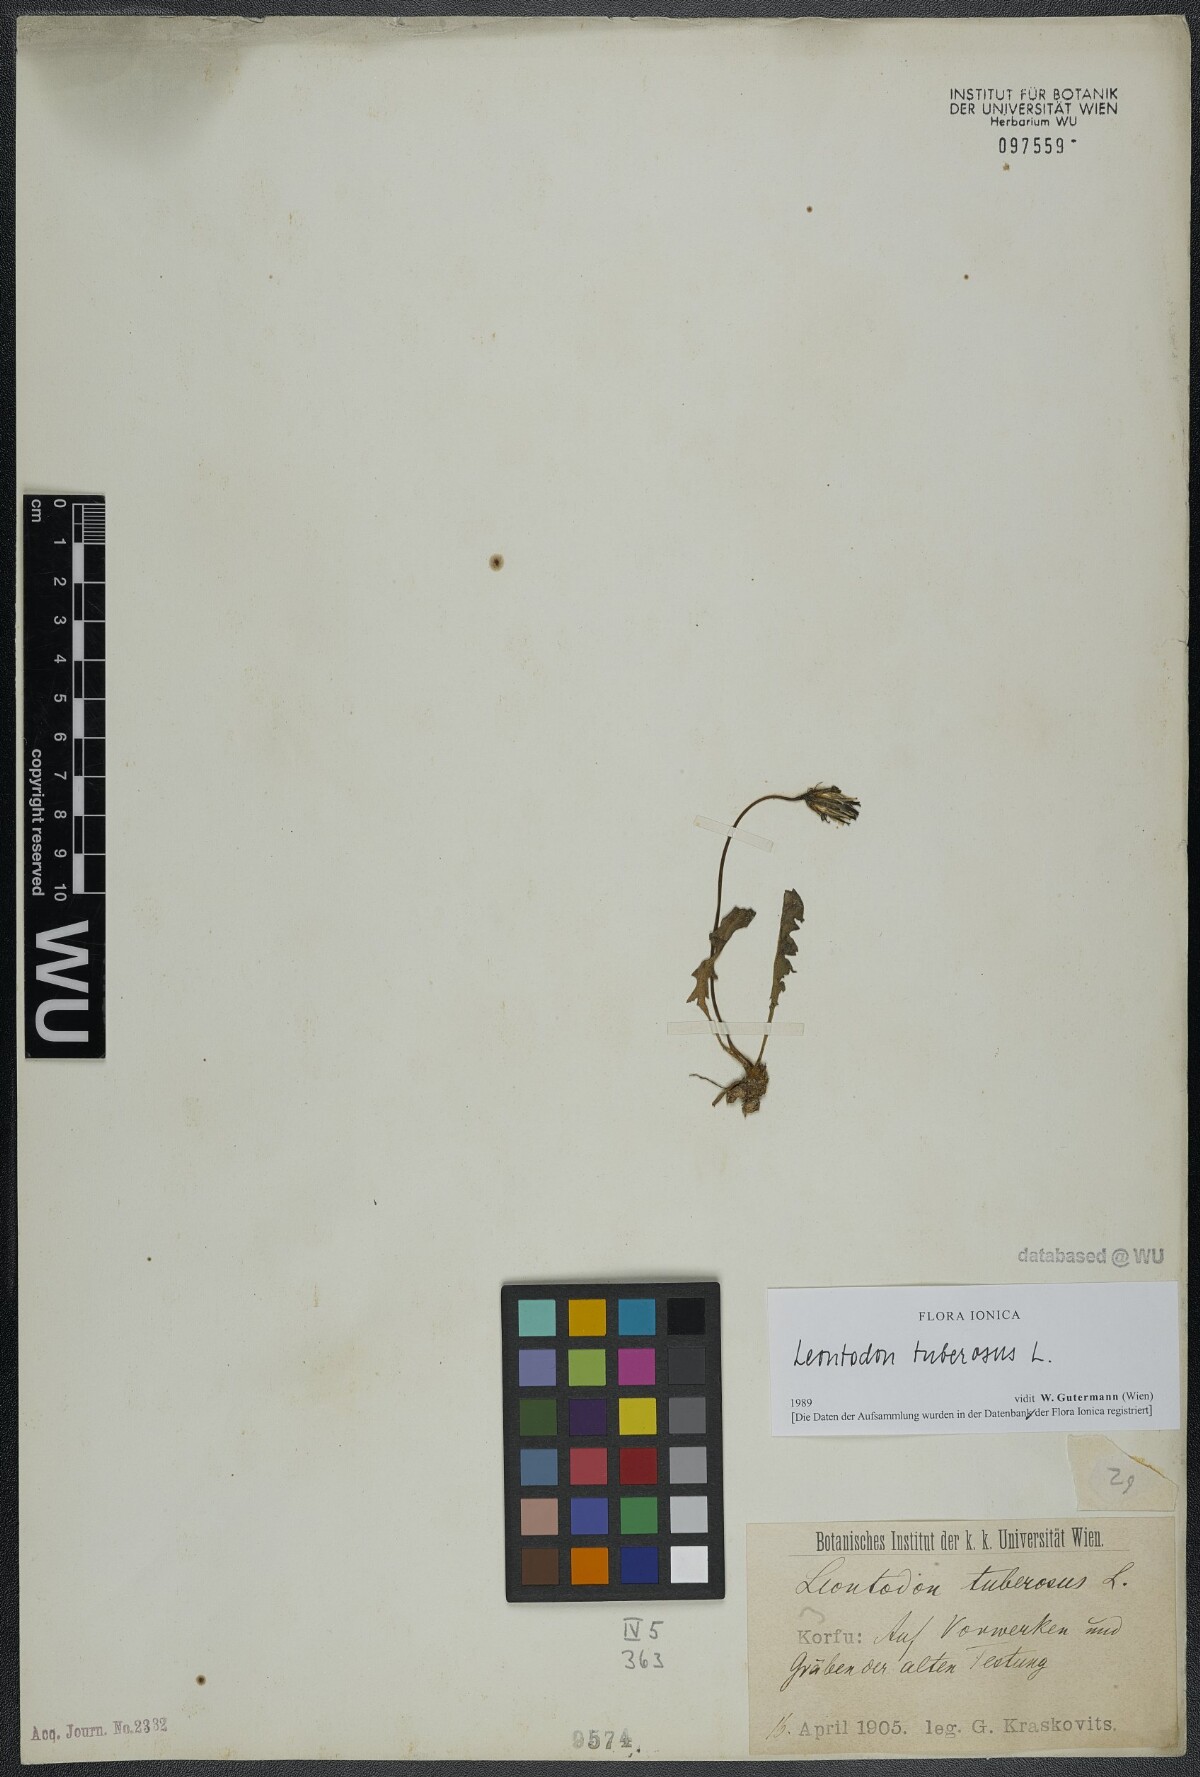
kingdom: Plantae
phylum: Tracheophyta
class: Magnoliopsida
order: Asterales
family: Asteraceae
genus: Thrincia
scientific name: Thrincia tuberosa
